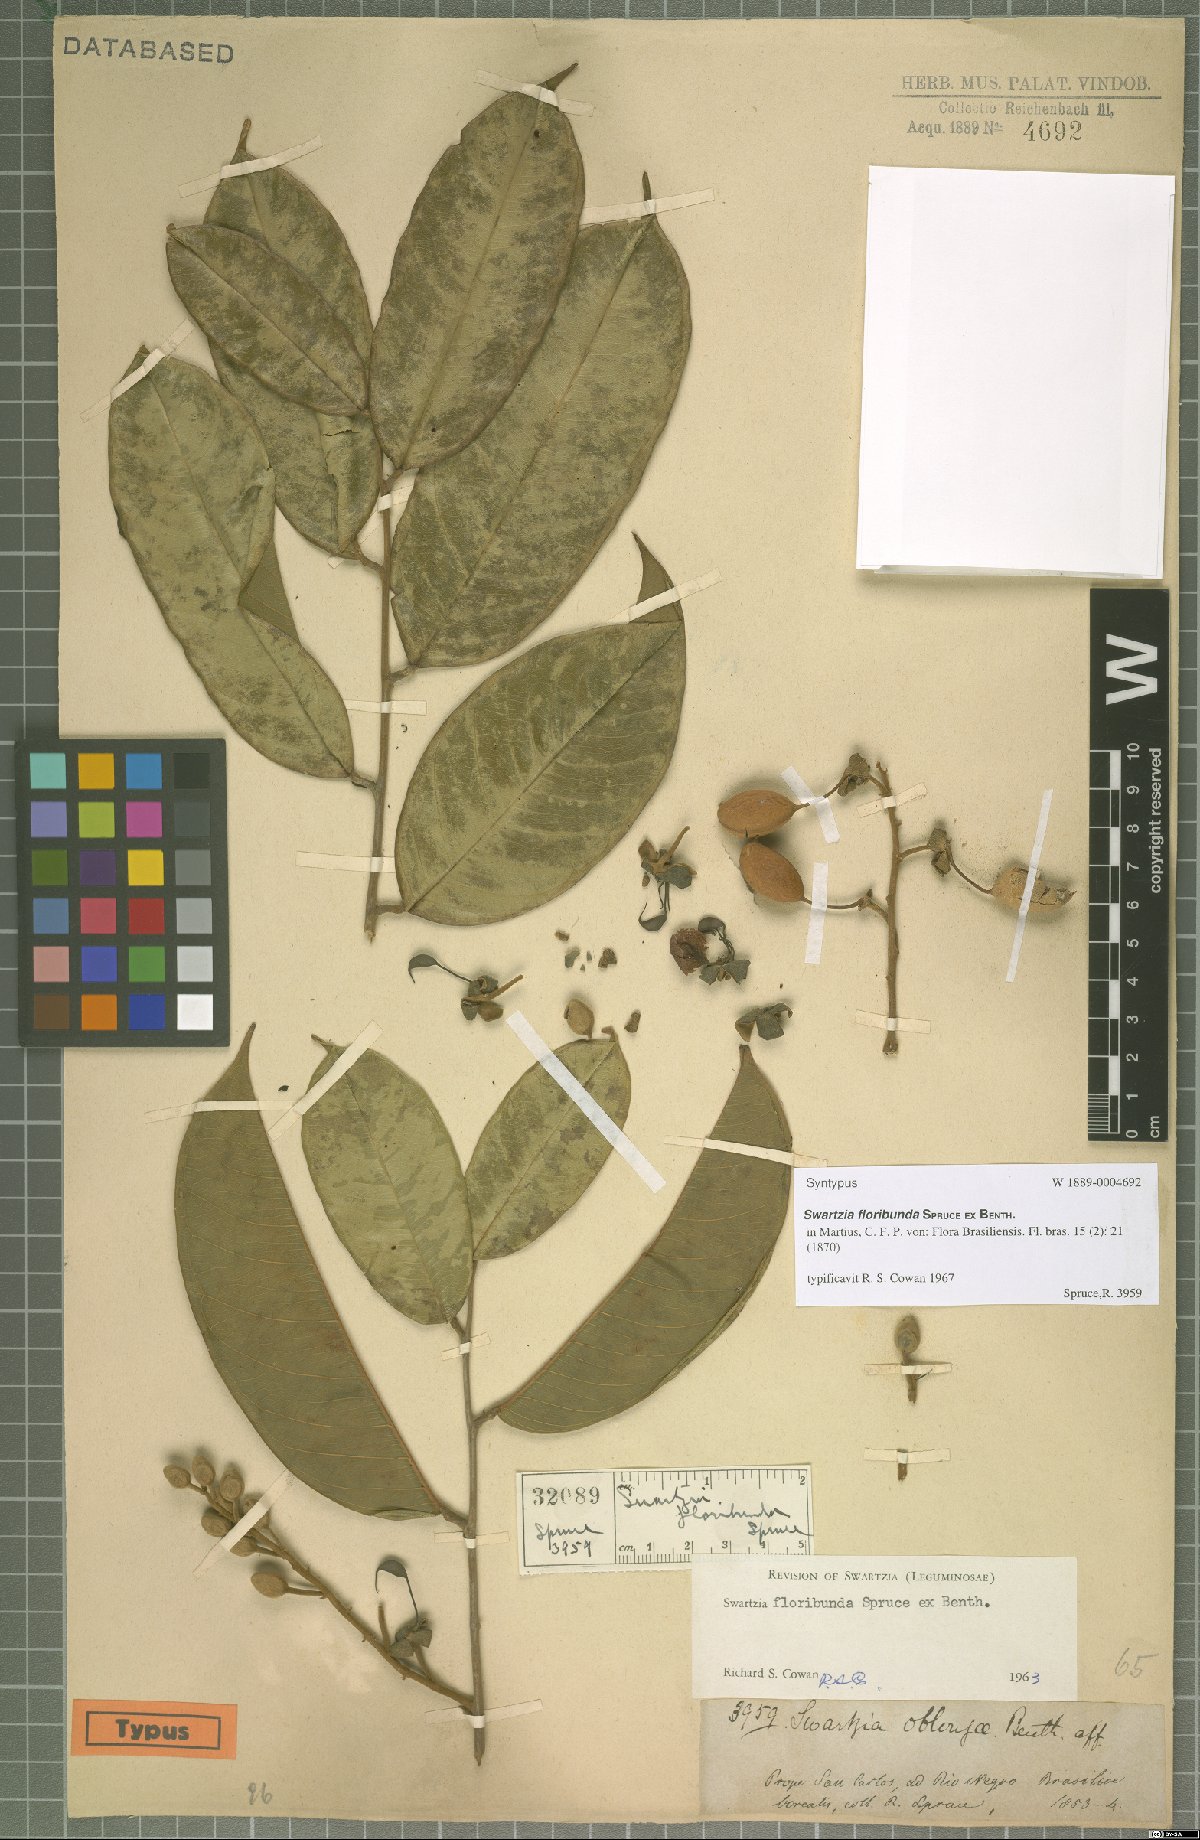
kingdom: Plantae
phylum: Tracheophyta
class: Magnoliopsida
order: Fabales
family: Fabaceae
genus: Swartzia
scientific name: Swartzia floribunda
